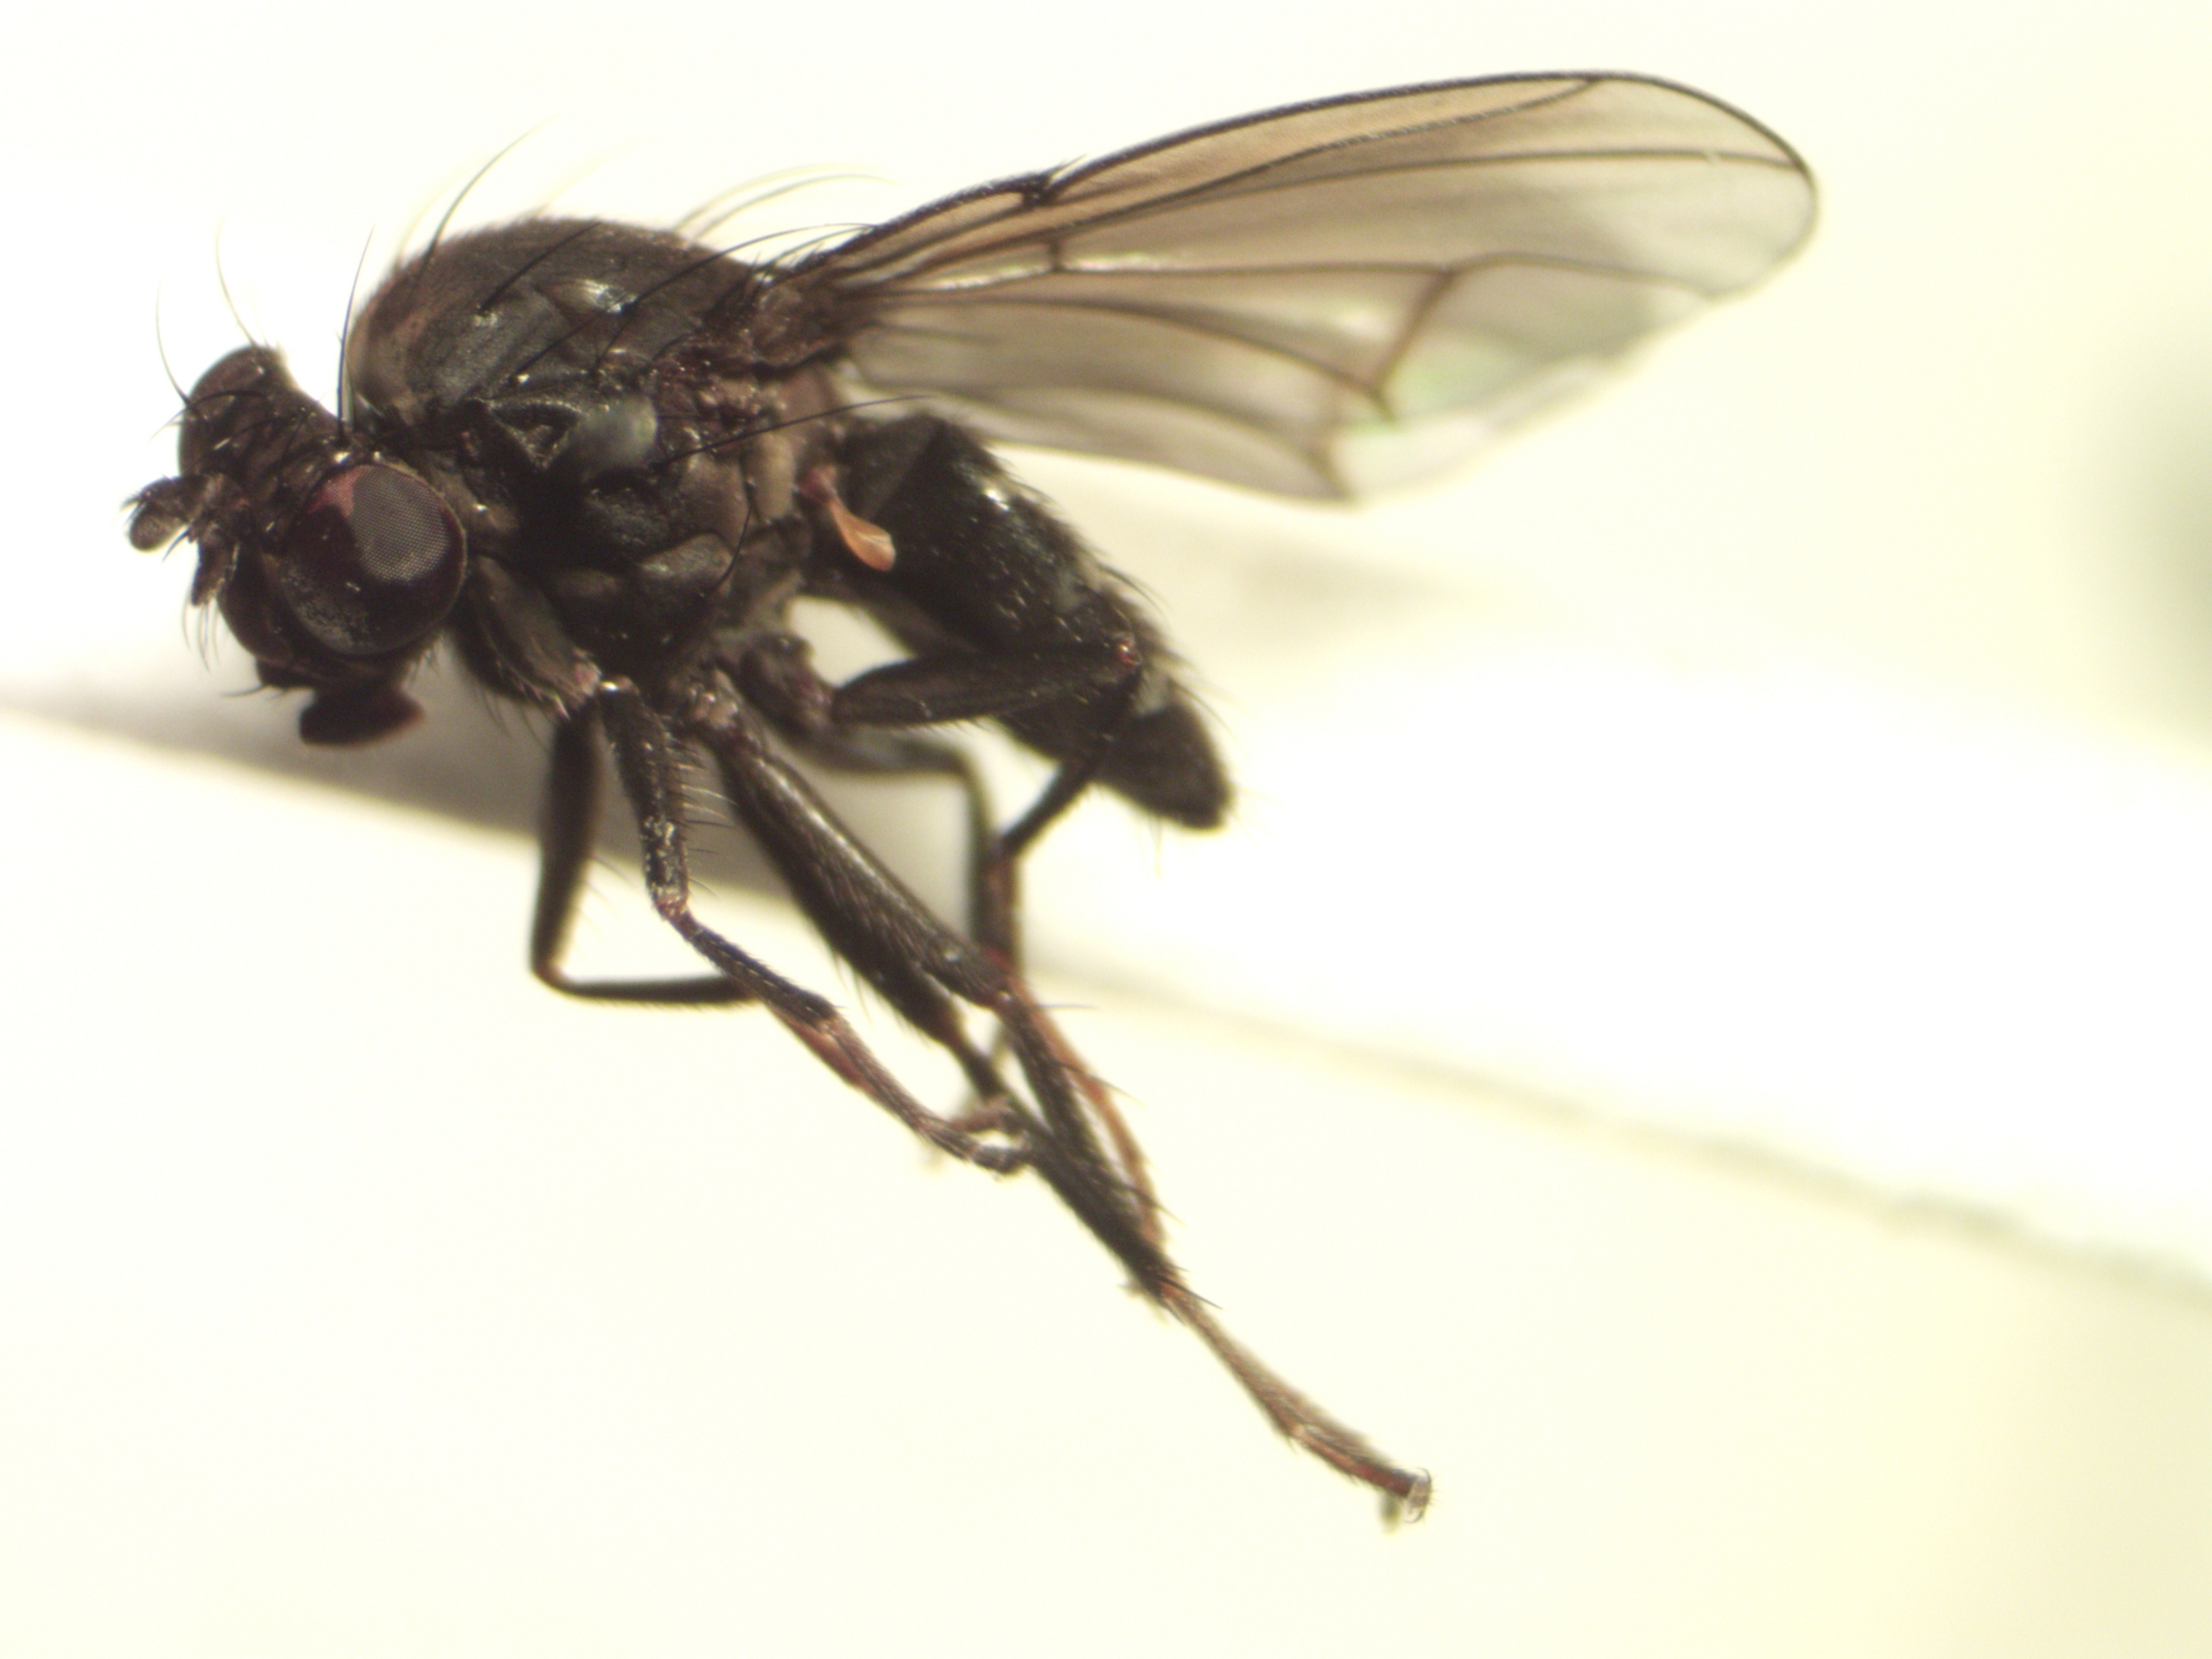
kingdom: Animalia
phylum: Arthropoda
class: Insecta
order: Diptera
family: Ephydridae
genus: Dichaeta
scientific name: Dichaeta caudata
